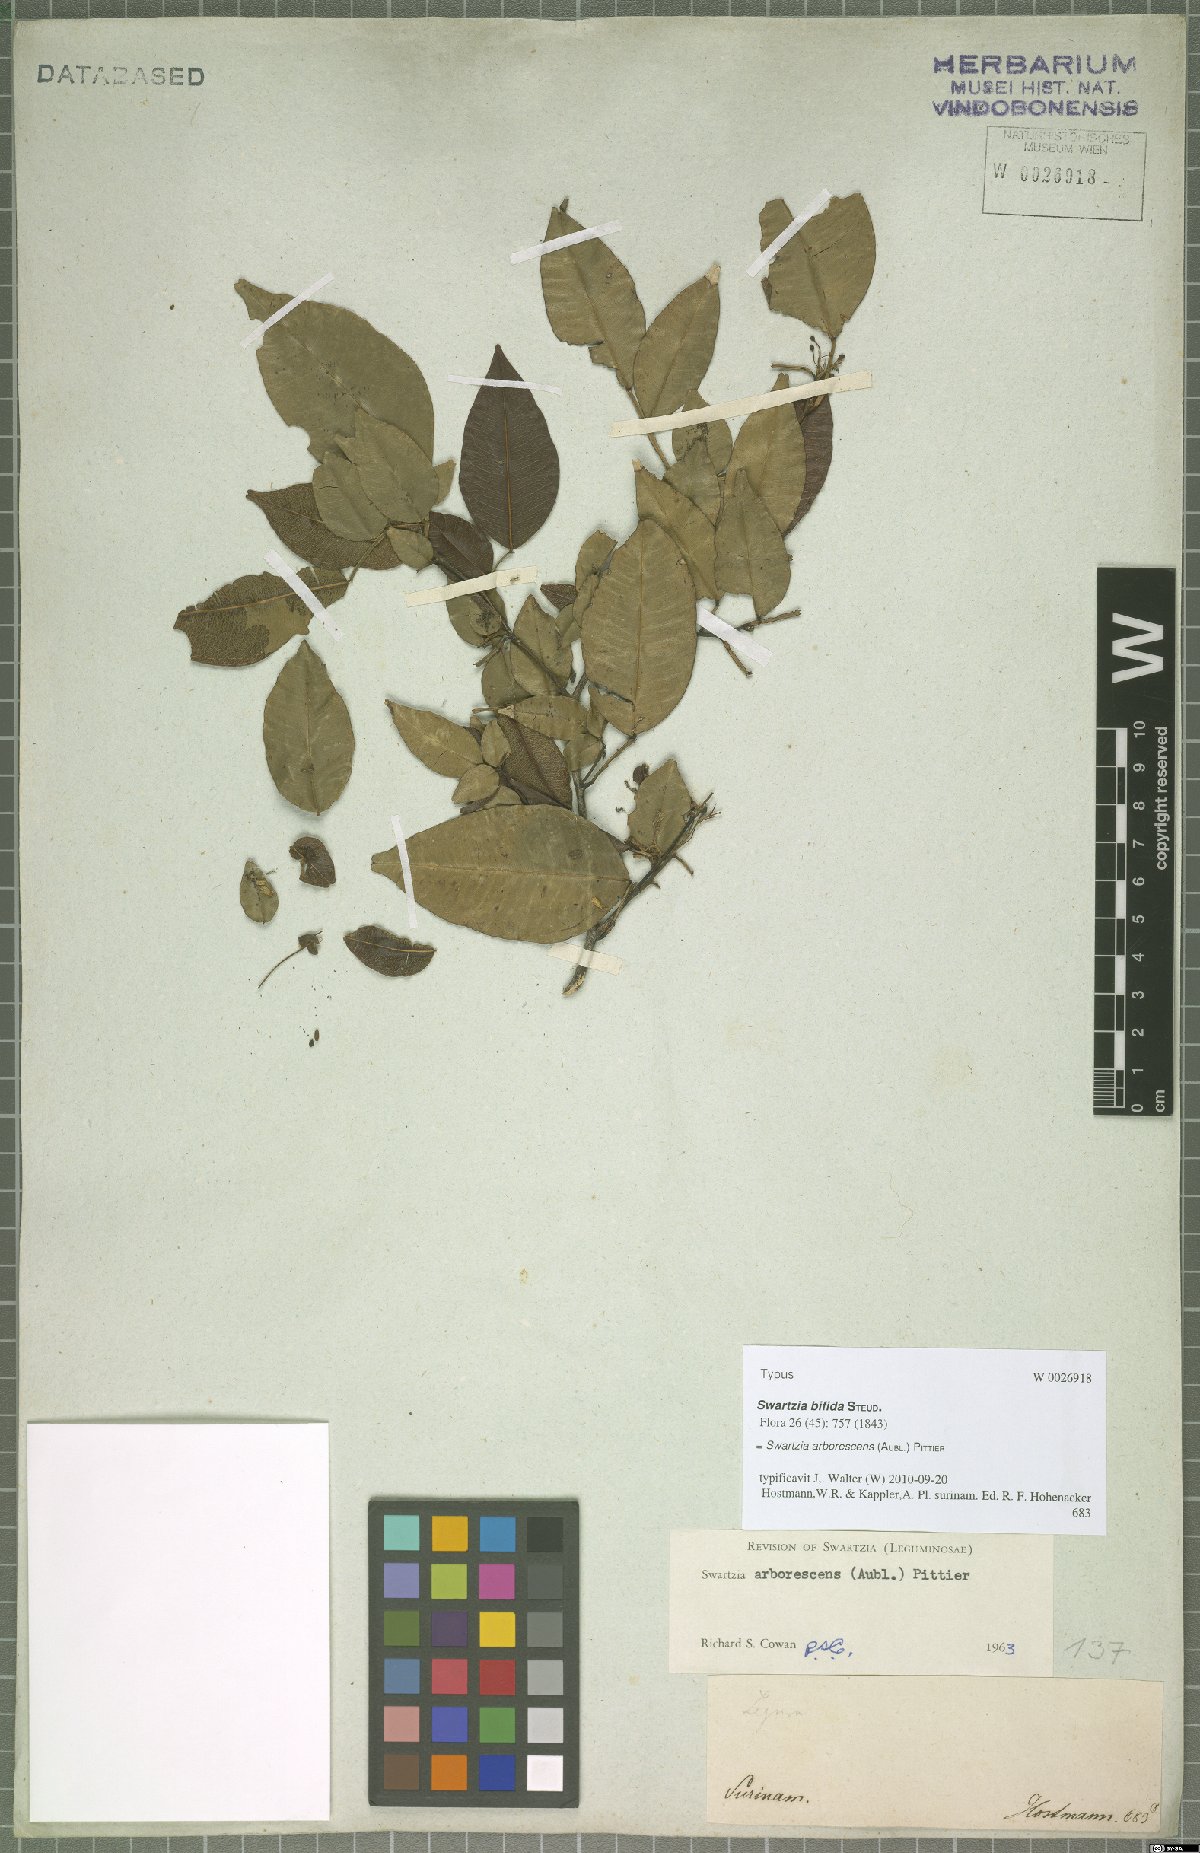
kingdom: Plantae
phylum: Tracheophyta
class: Magnoliopsida
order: Fabales
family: Fabaceae
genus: Swartzia
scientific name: Swartzia arborescens
